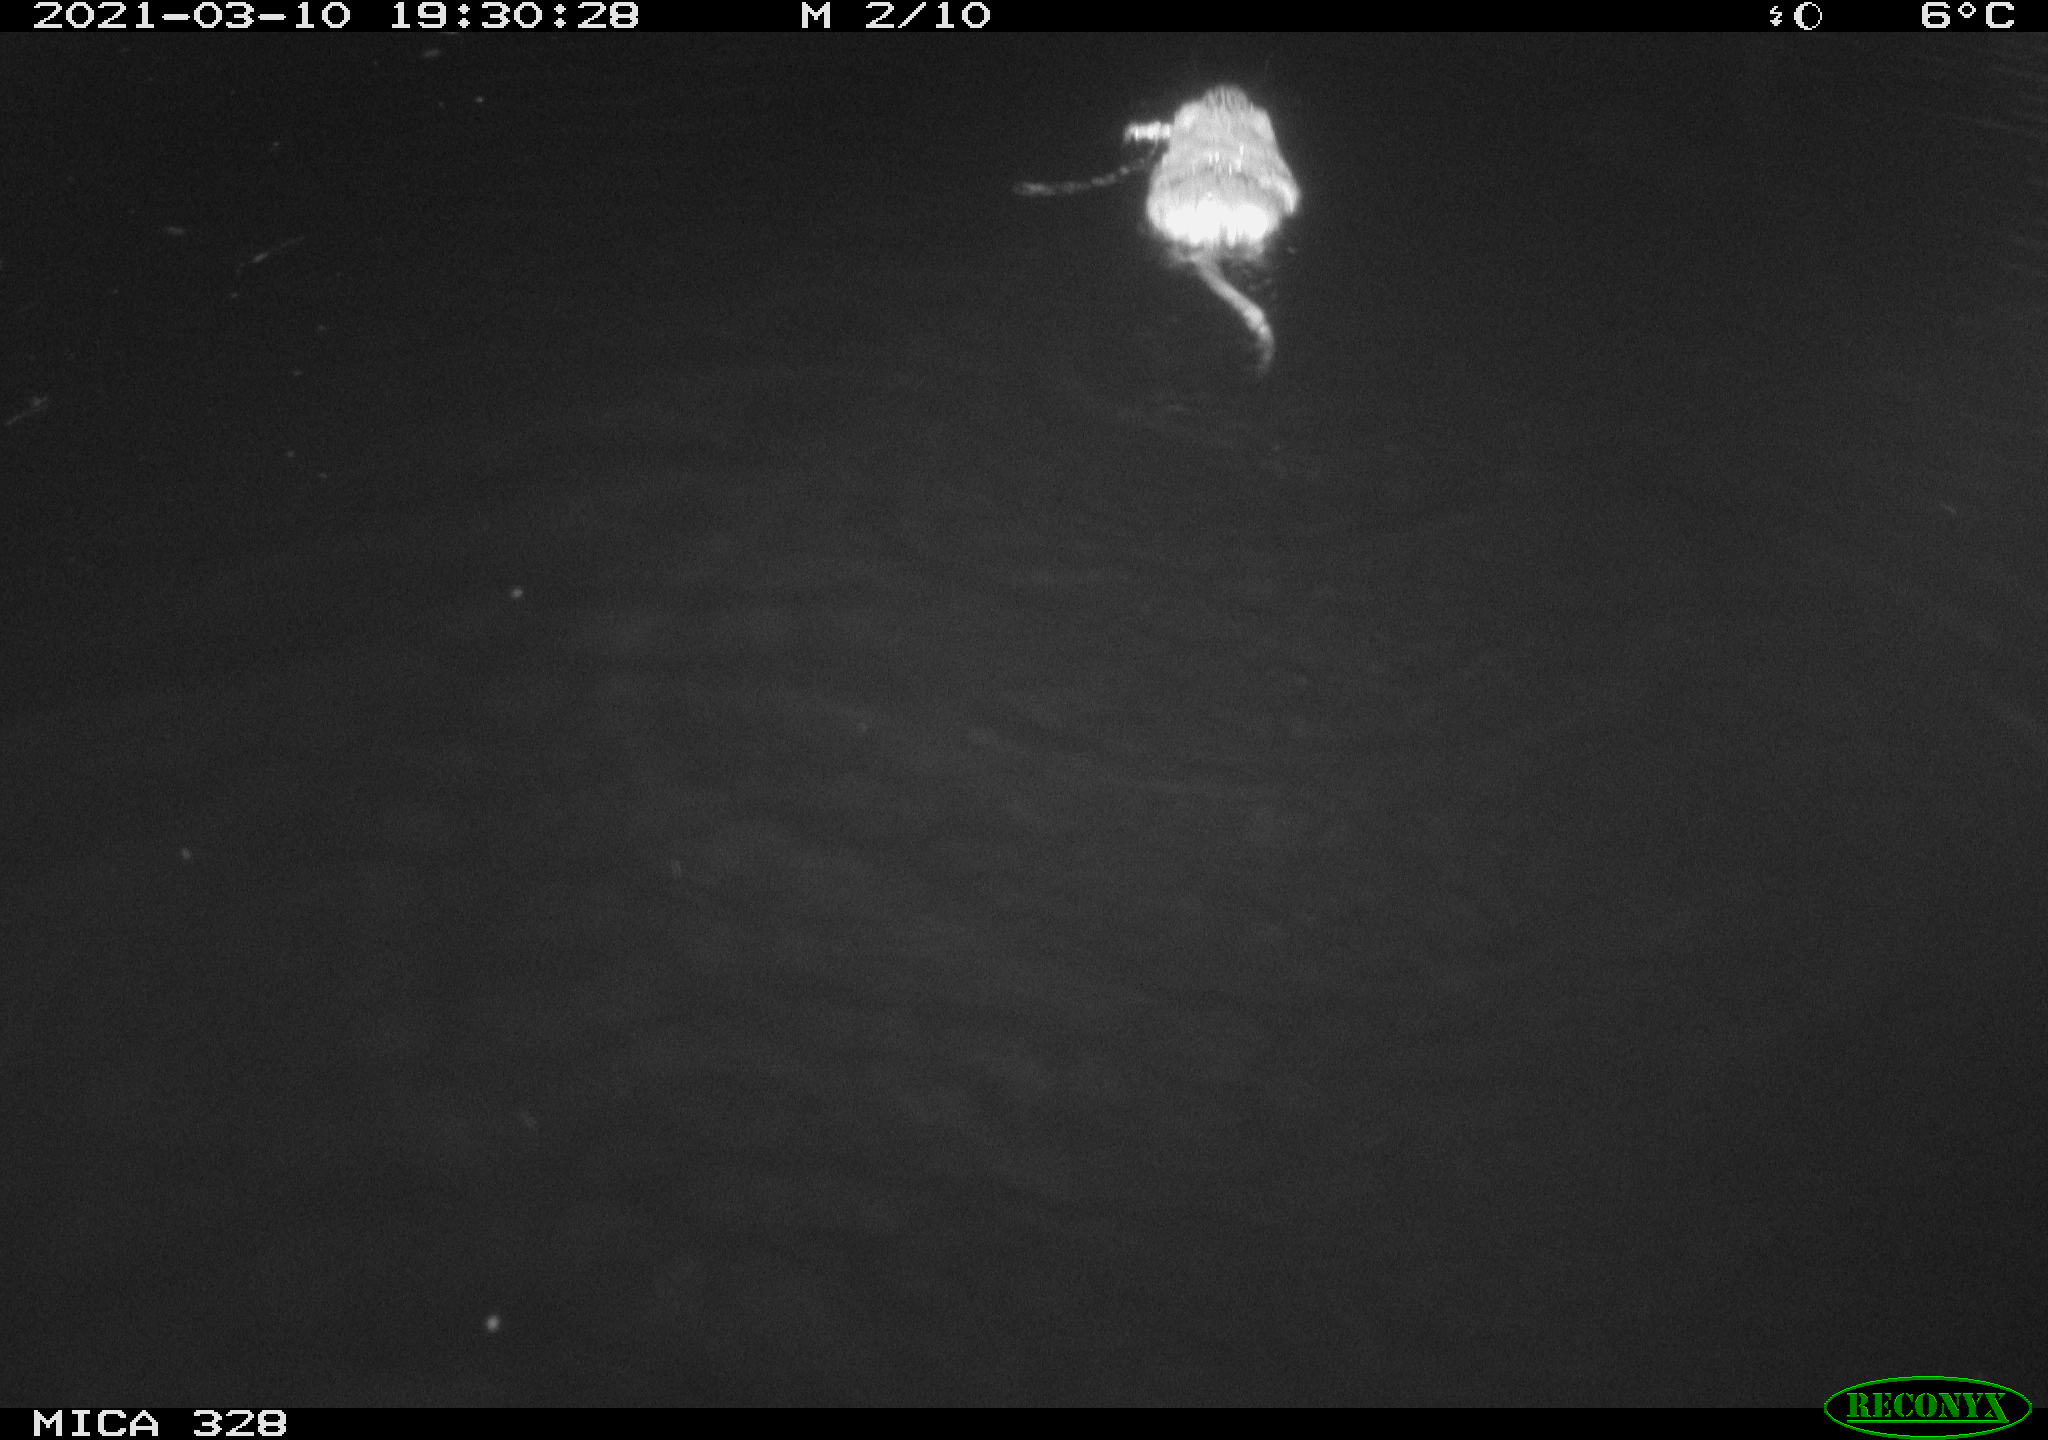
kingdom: Animalia
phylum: Chordata
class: Mammalia
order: Rodentia
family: Cricetidae
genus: Ondatra
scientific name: Ondatra zibethicus
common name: Muskrat
